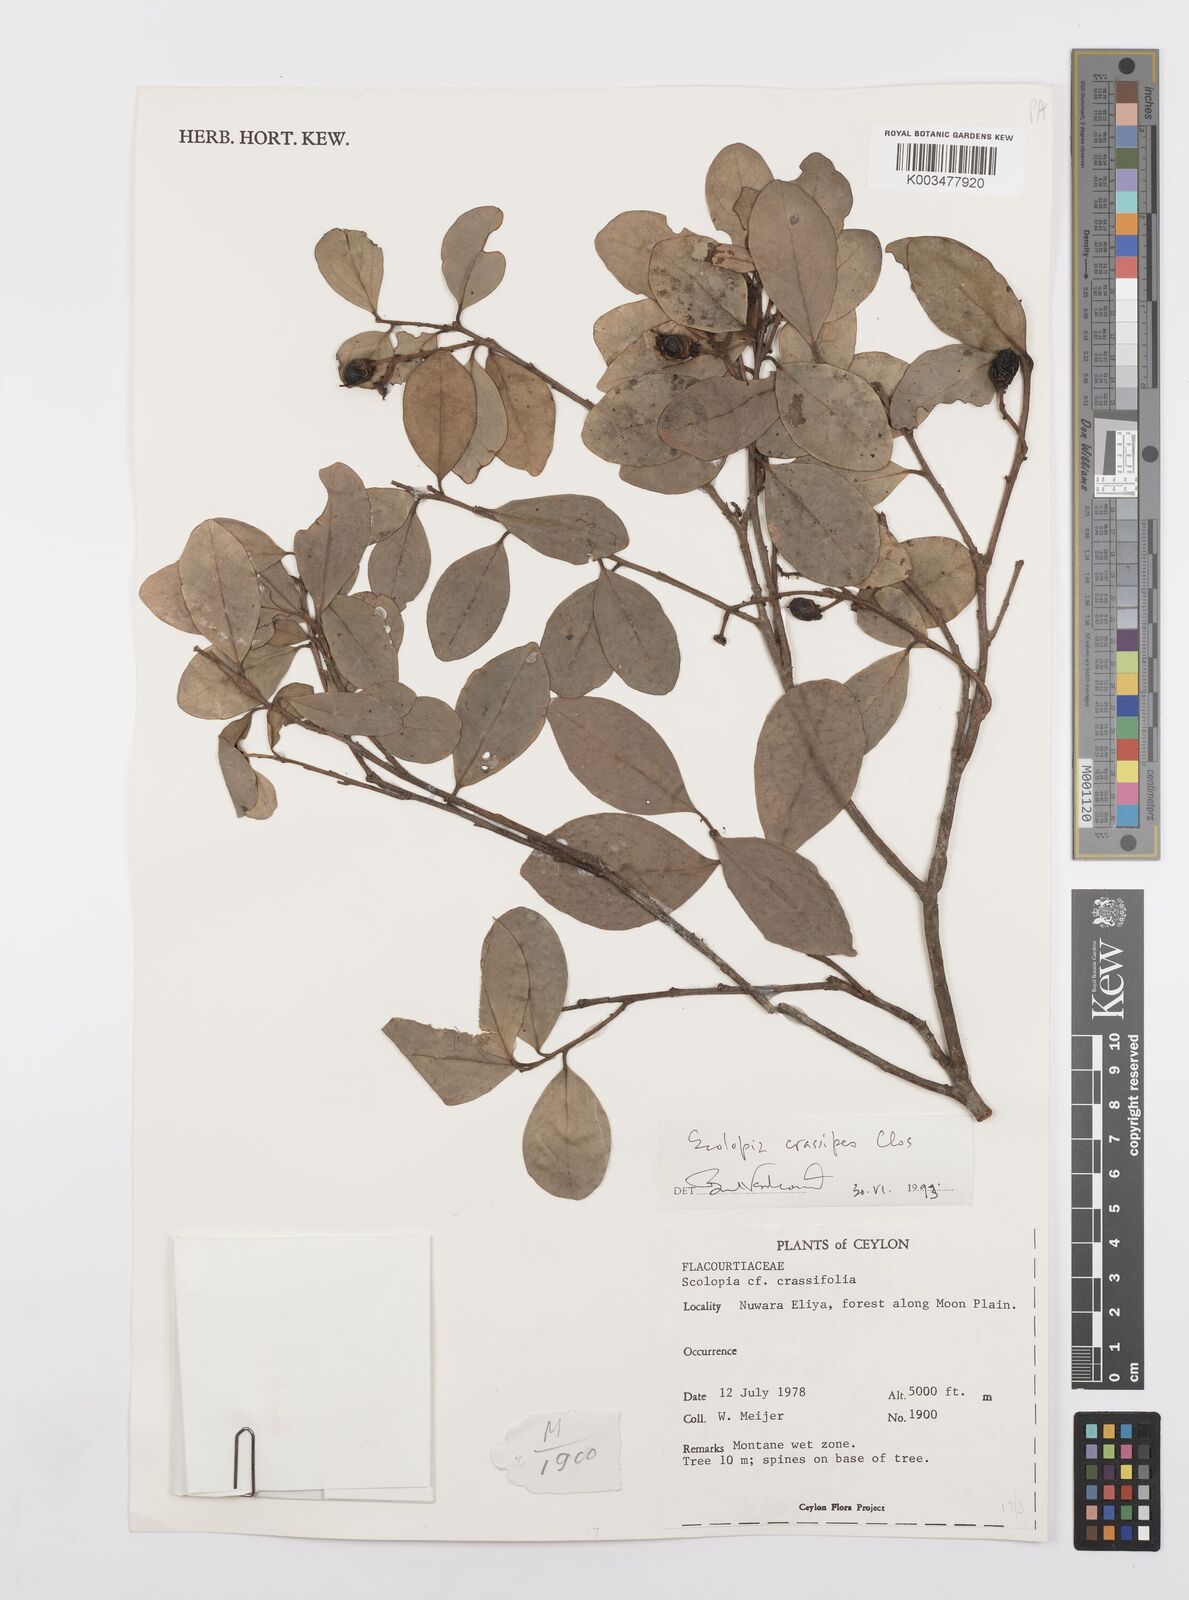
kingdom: Plantae
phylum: Tracheophyta
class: Magnoliopsida
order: Malpighiales
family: Salicaceae
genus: Scolopia
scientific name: Scolopia crassipes
